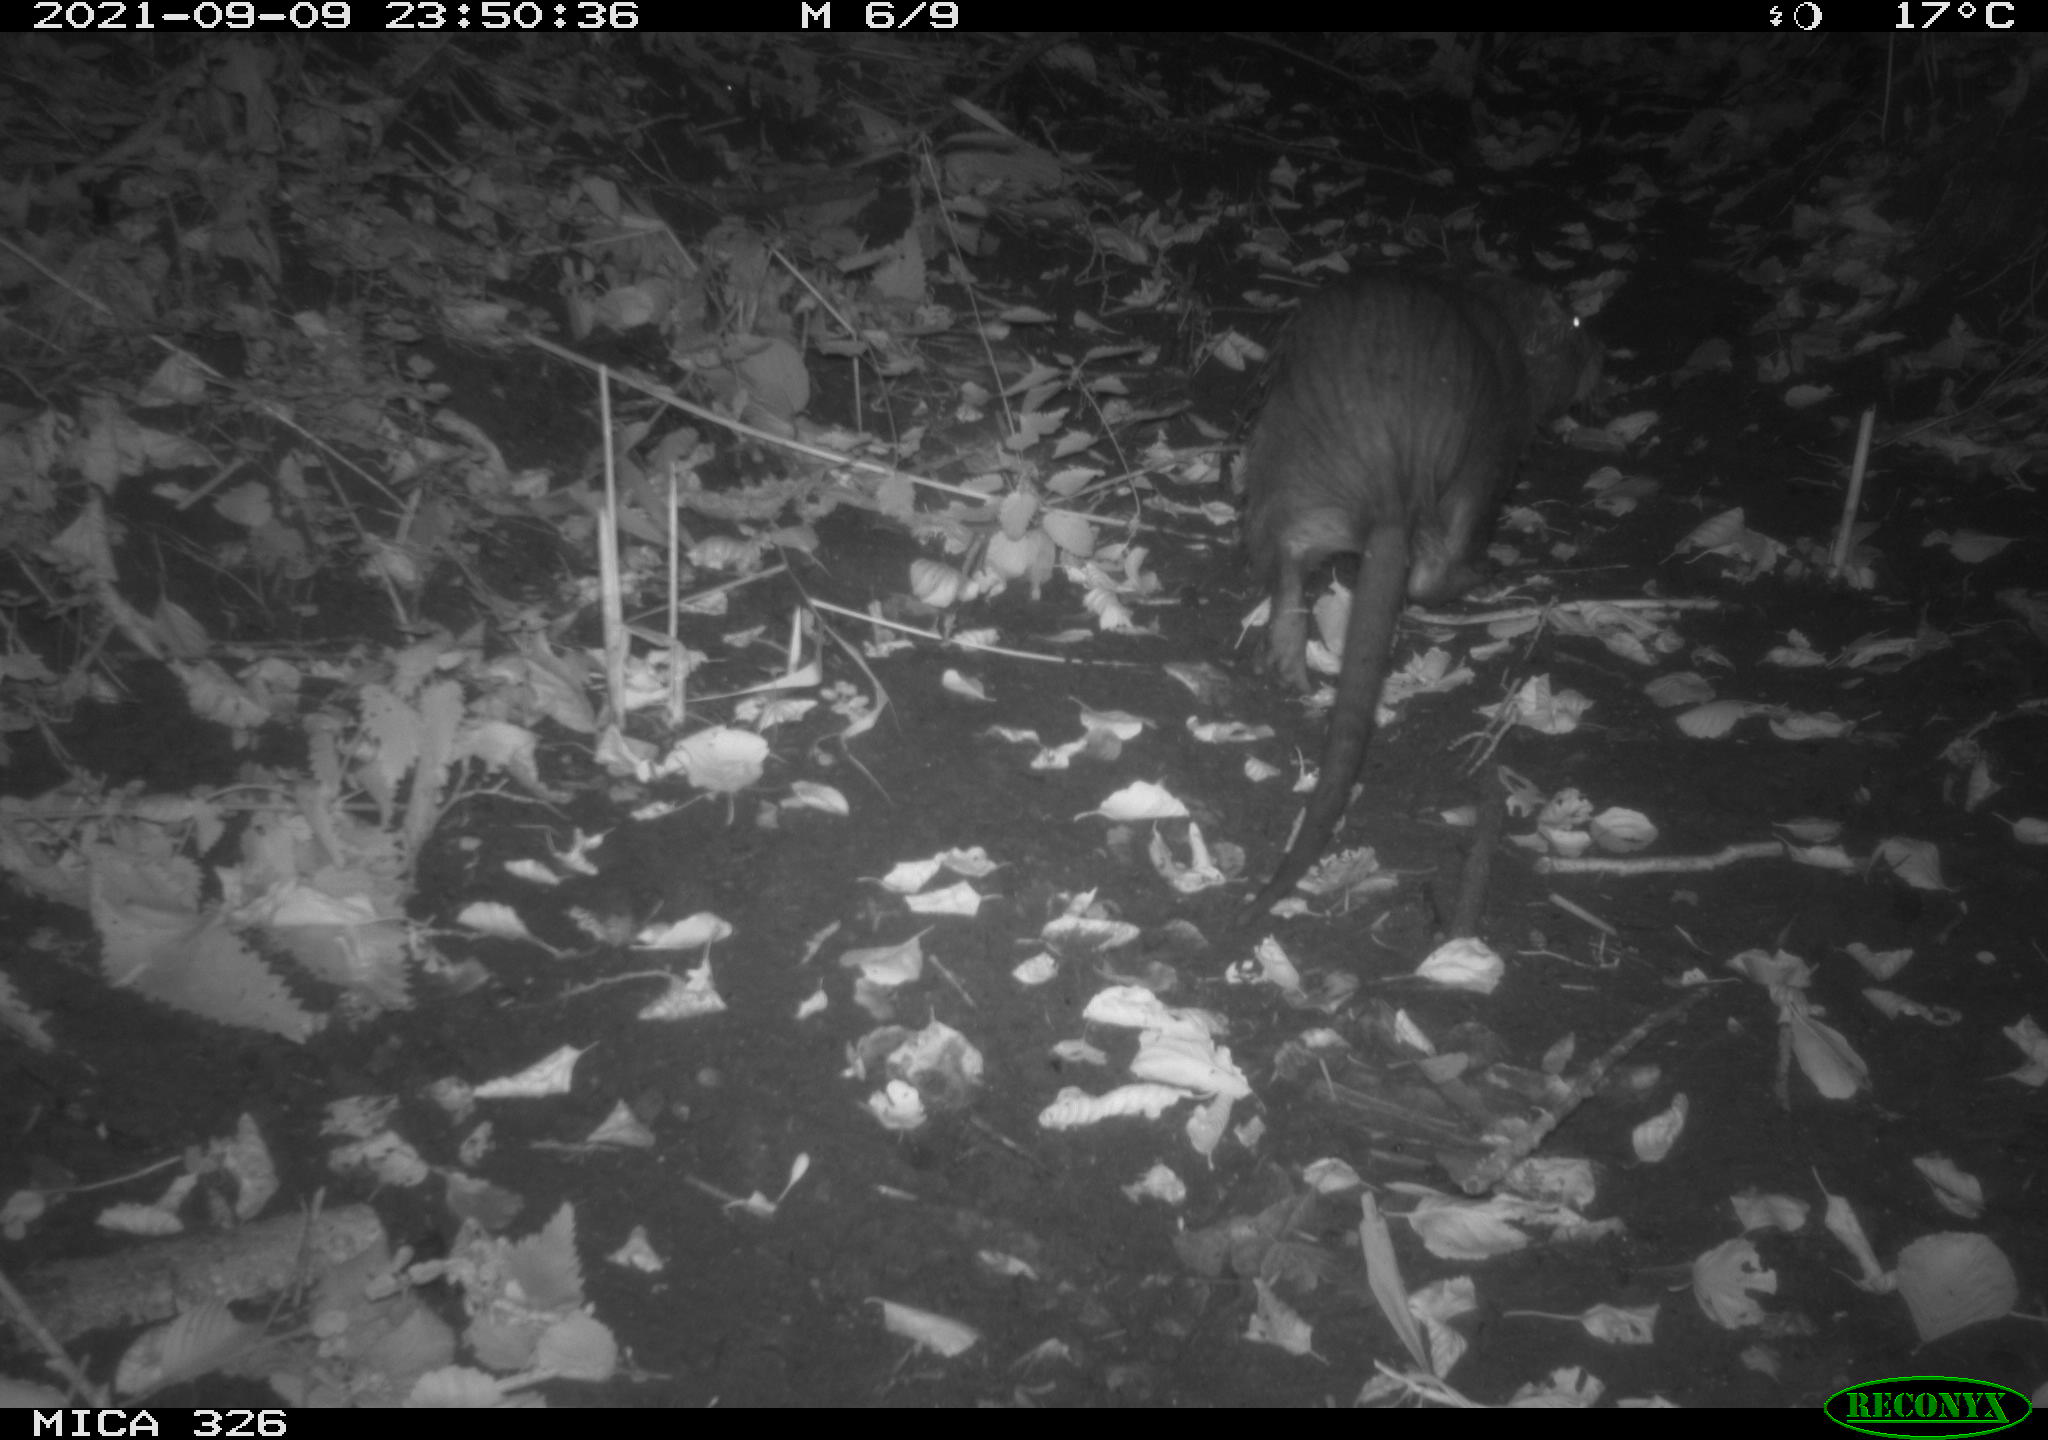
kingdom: Animalia
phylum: Chordata
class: Mammalia
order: Rodentia
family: Myocastoridae
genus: Myocastor
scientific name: Myocastor coypus
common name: Coypu
